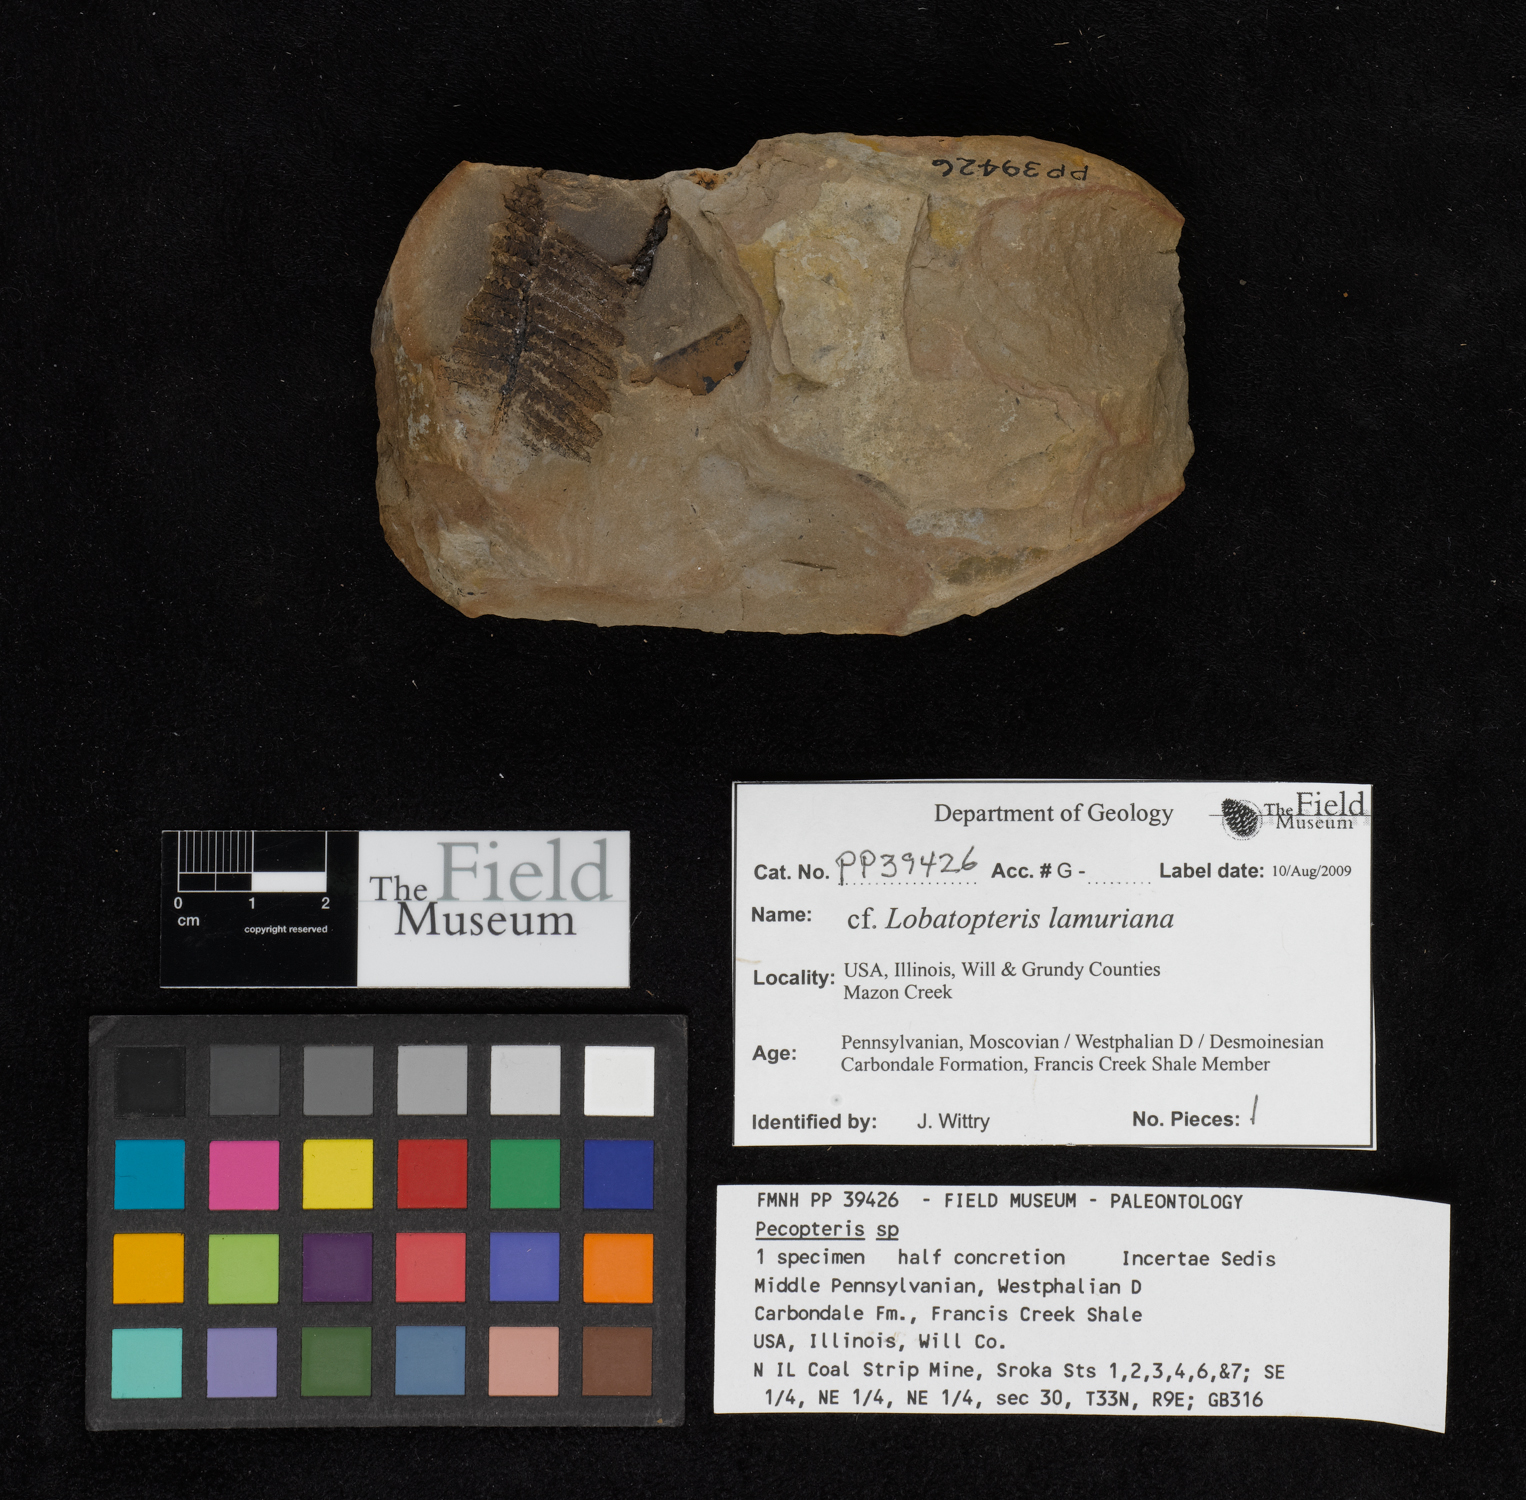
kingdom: Plantae
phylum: Tracheophyta
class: Polypodiopsida
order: Marattiales
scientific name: Marattiales
